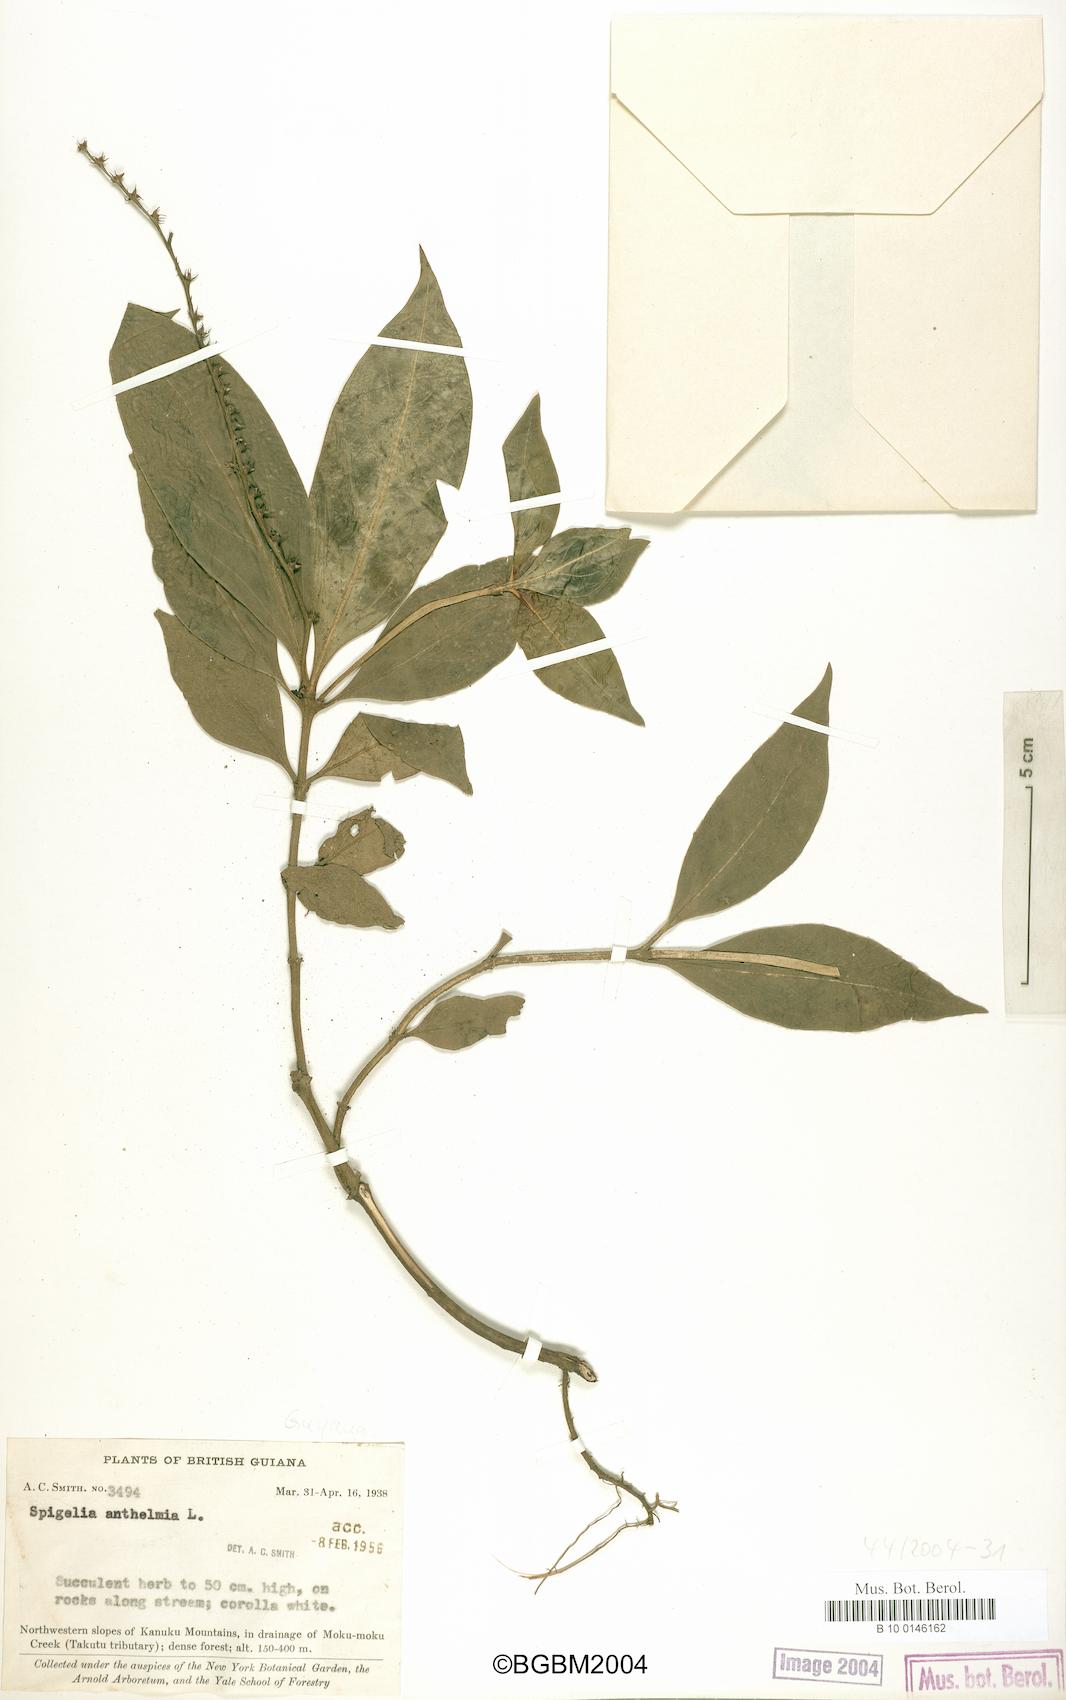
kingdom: Plantae
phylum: Tracheophyta
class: Magnoliopsida
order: Gentianales
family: Loganiaceae
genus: Spigelia
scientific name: Spigelia anthelmia
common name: West indian-pink
